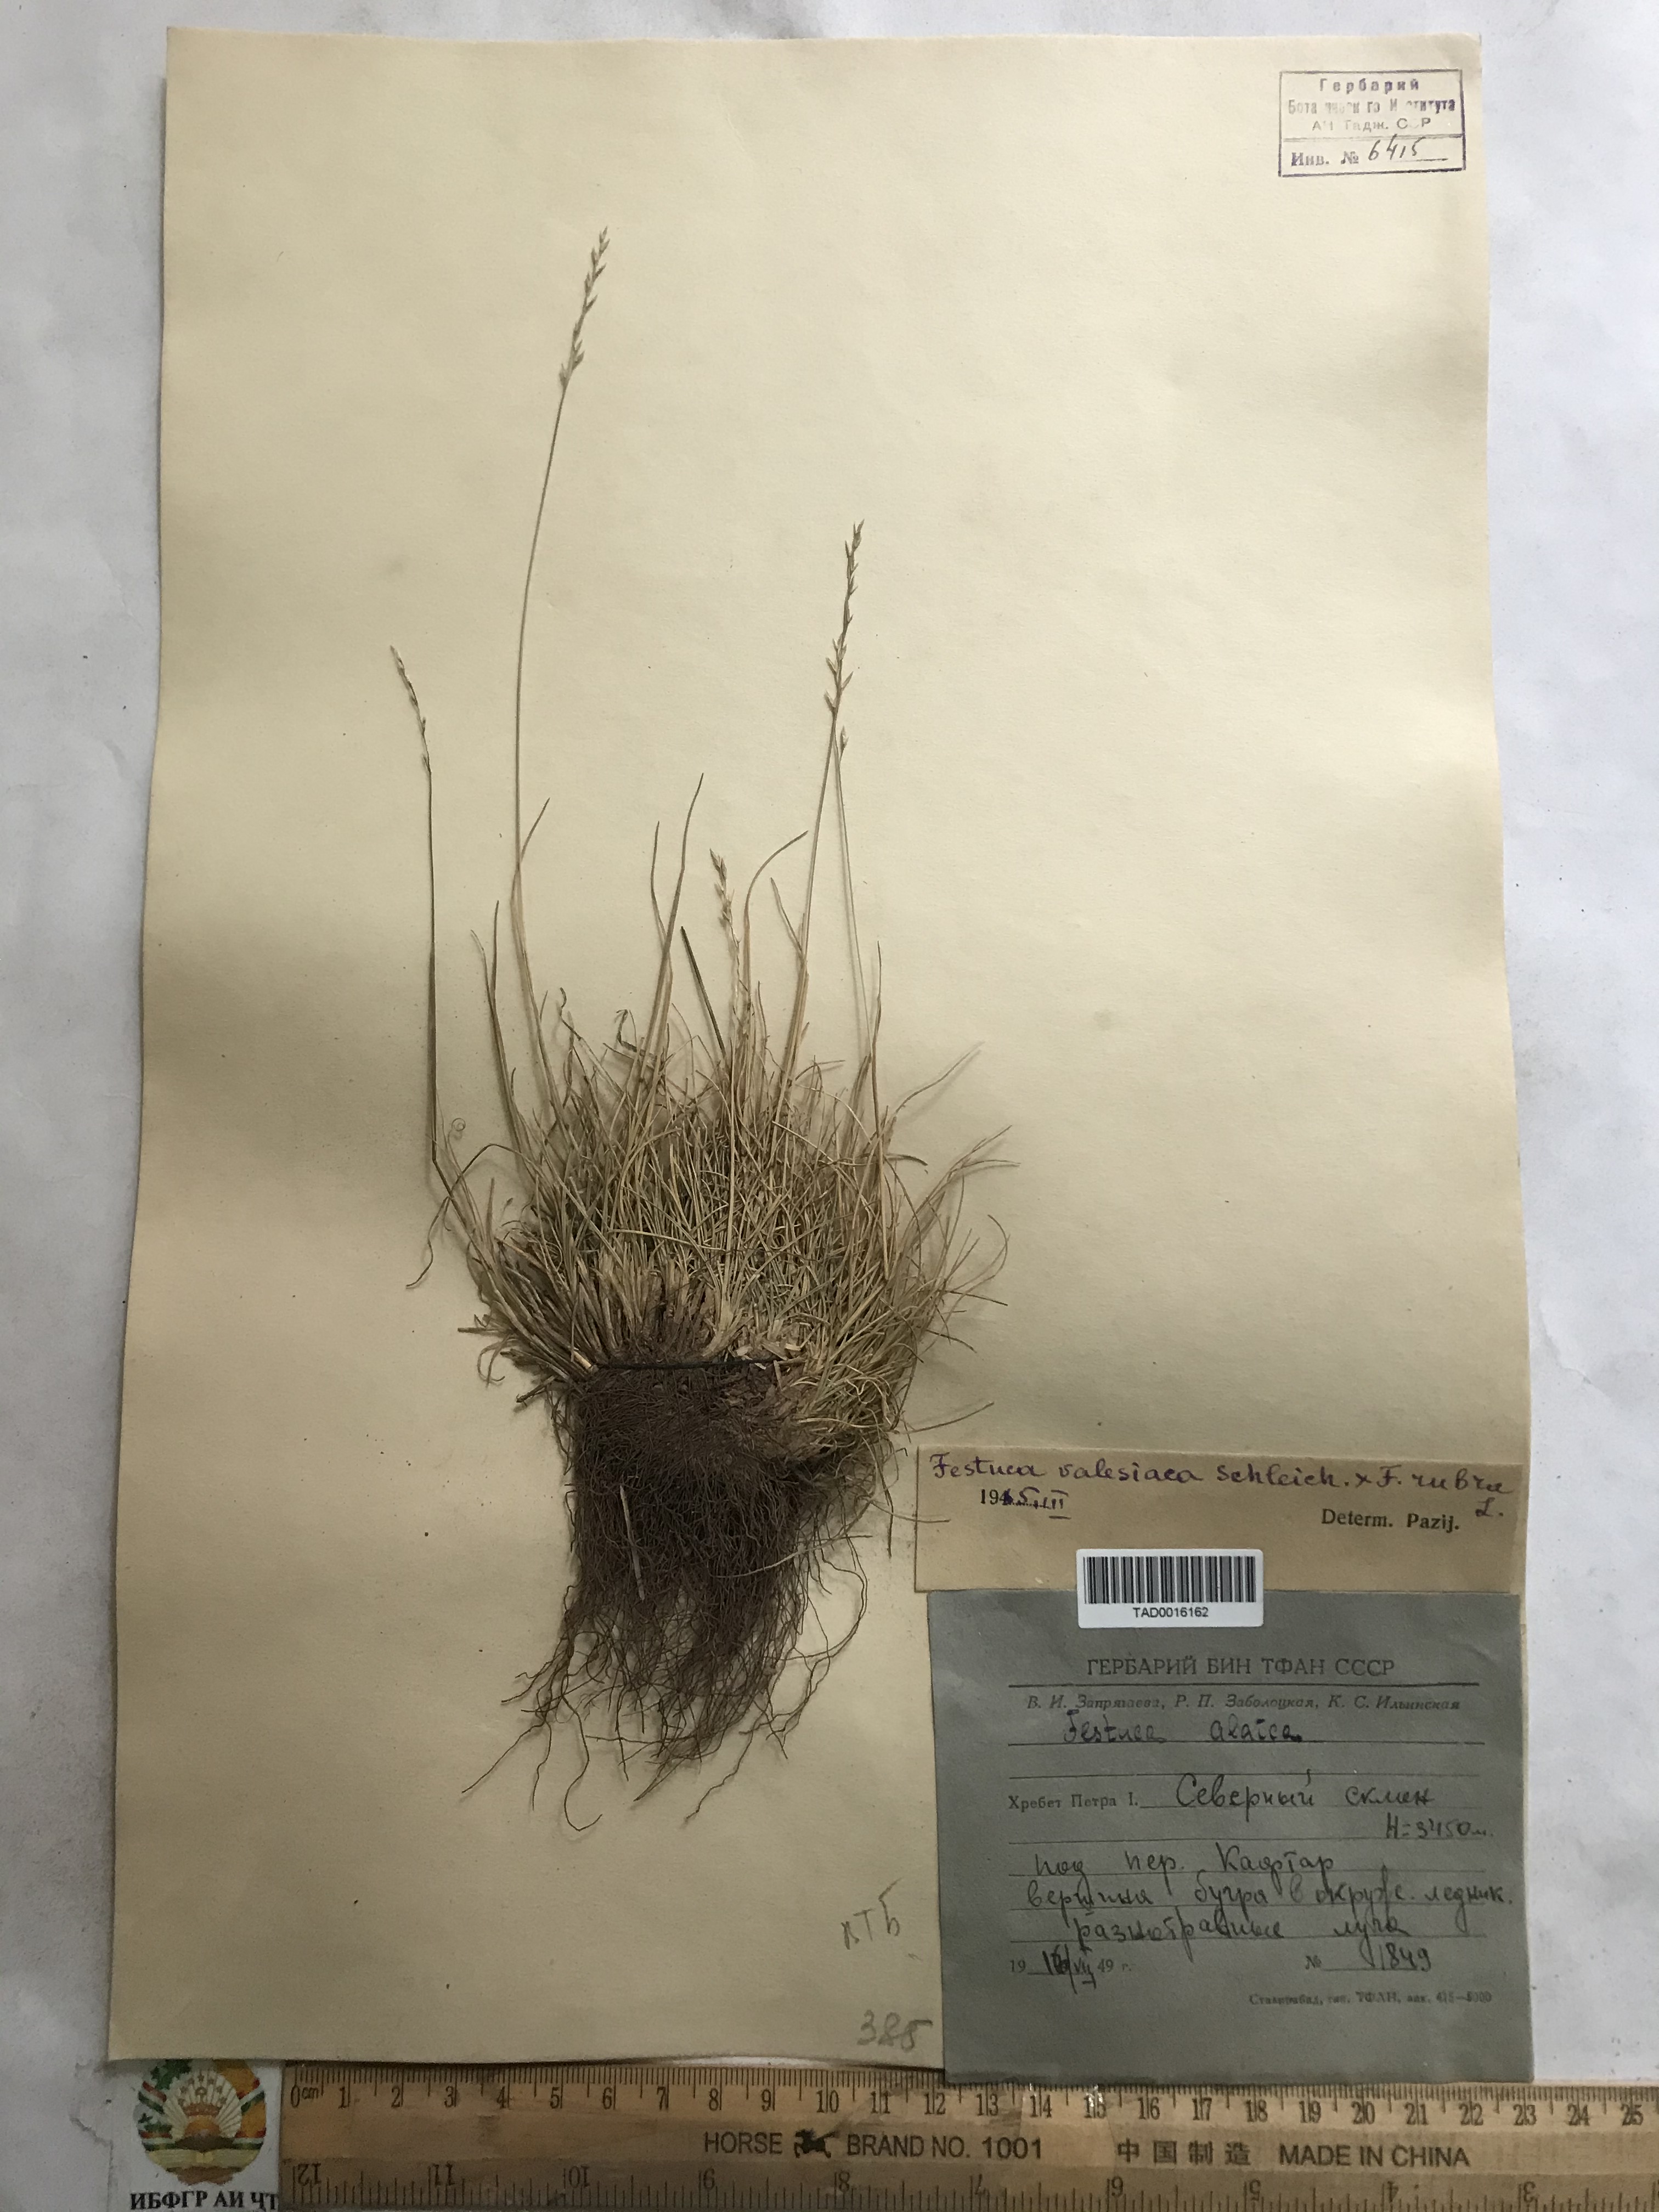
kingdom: Plantae
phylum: Tracheophyta
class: Liliopsida
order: Poales
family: Poaceae
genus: Festuca
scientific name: Festuca valesiaca
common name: Volga fescue
